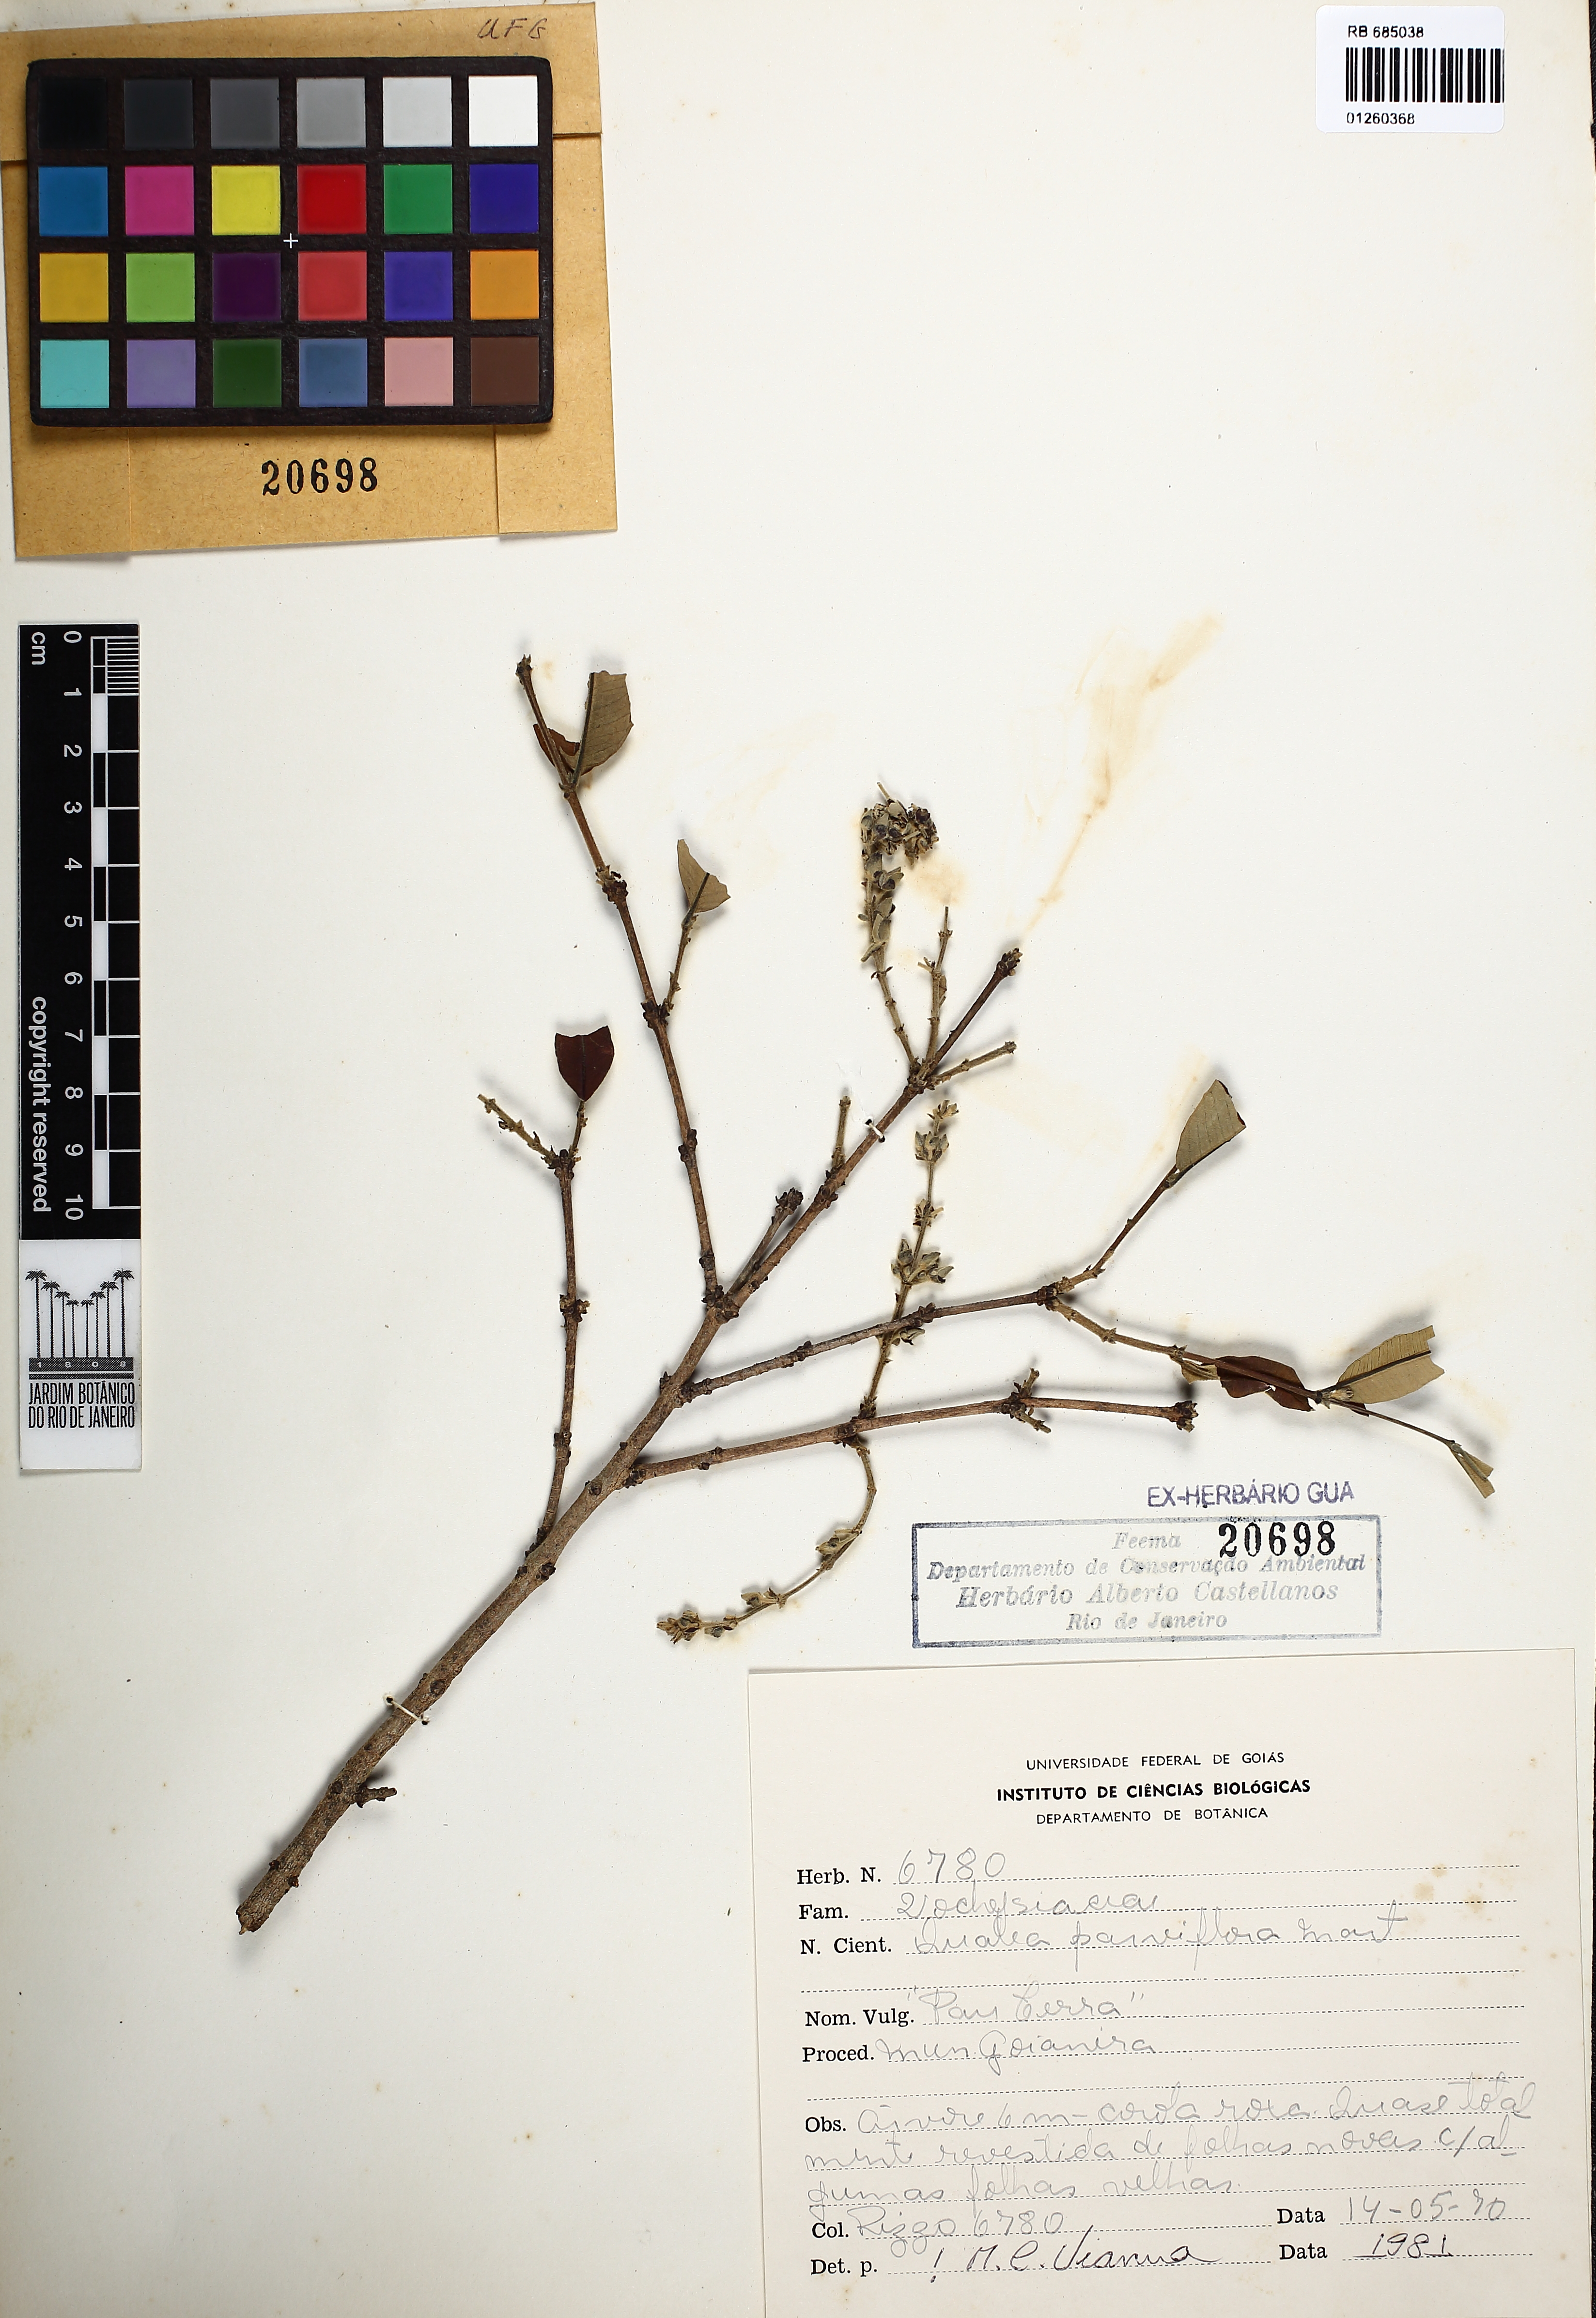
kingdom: Plantae
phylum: Tracheophyta
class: Magnoliopsida
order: Myrtales
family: Vochysiaceae
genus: Qualea
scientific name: Qualea parviflora
